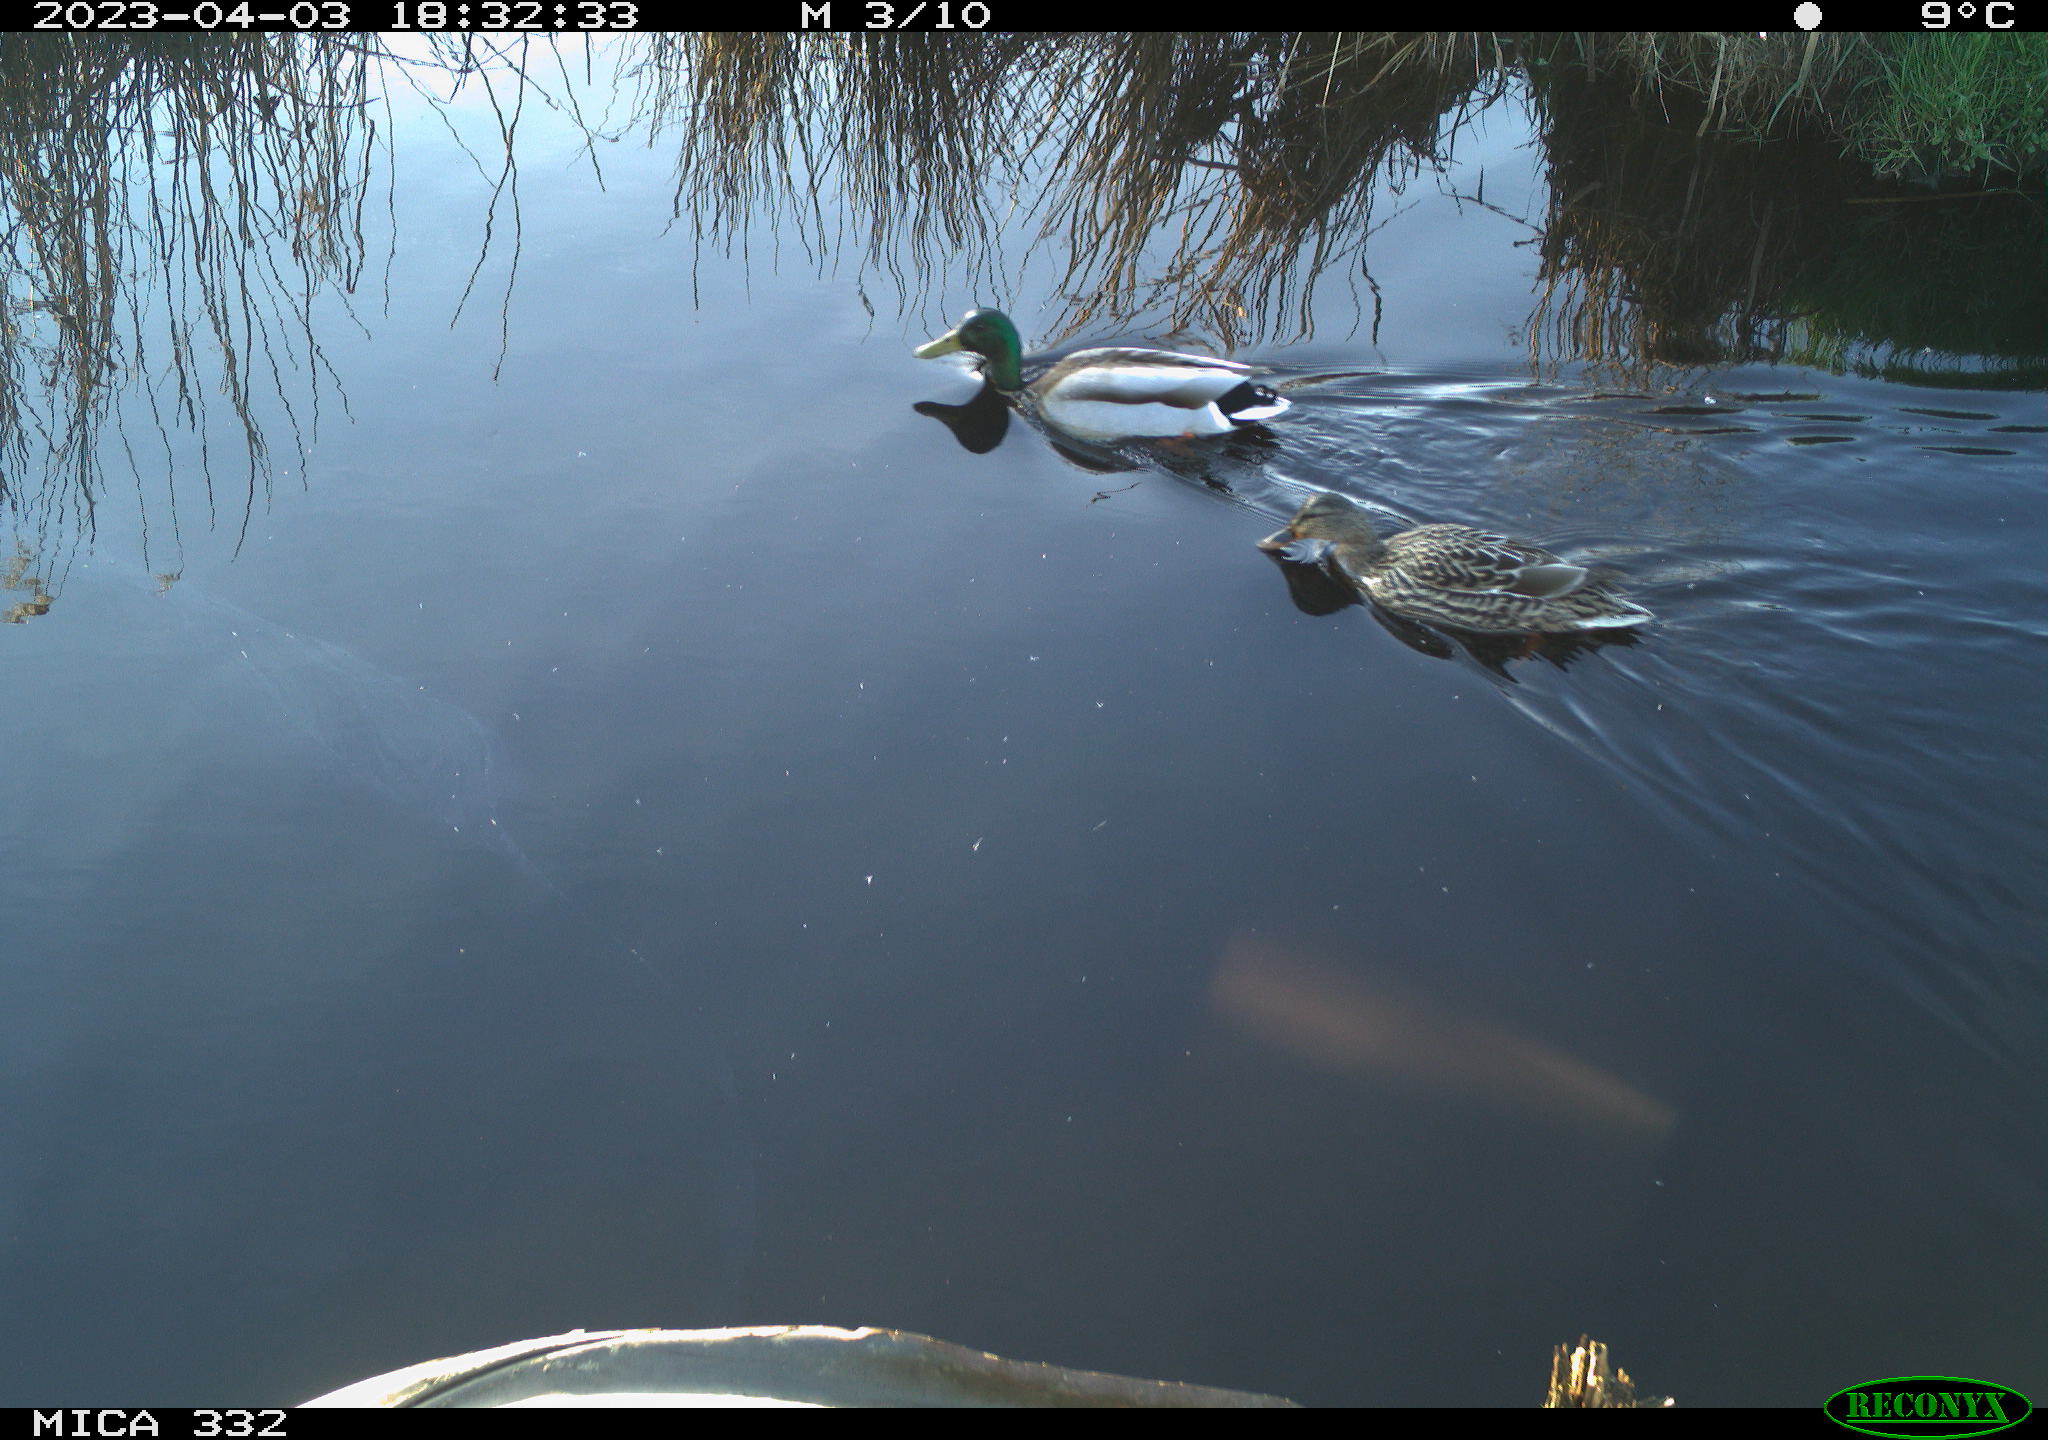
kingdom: Animalia
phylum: Chordata
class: Aves
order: Anseriformes
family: Anatidae
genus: Anas
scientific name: Anas platyrhynchos
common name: Mallard
